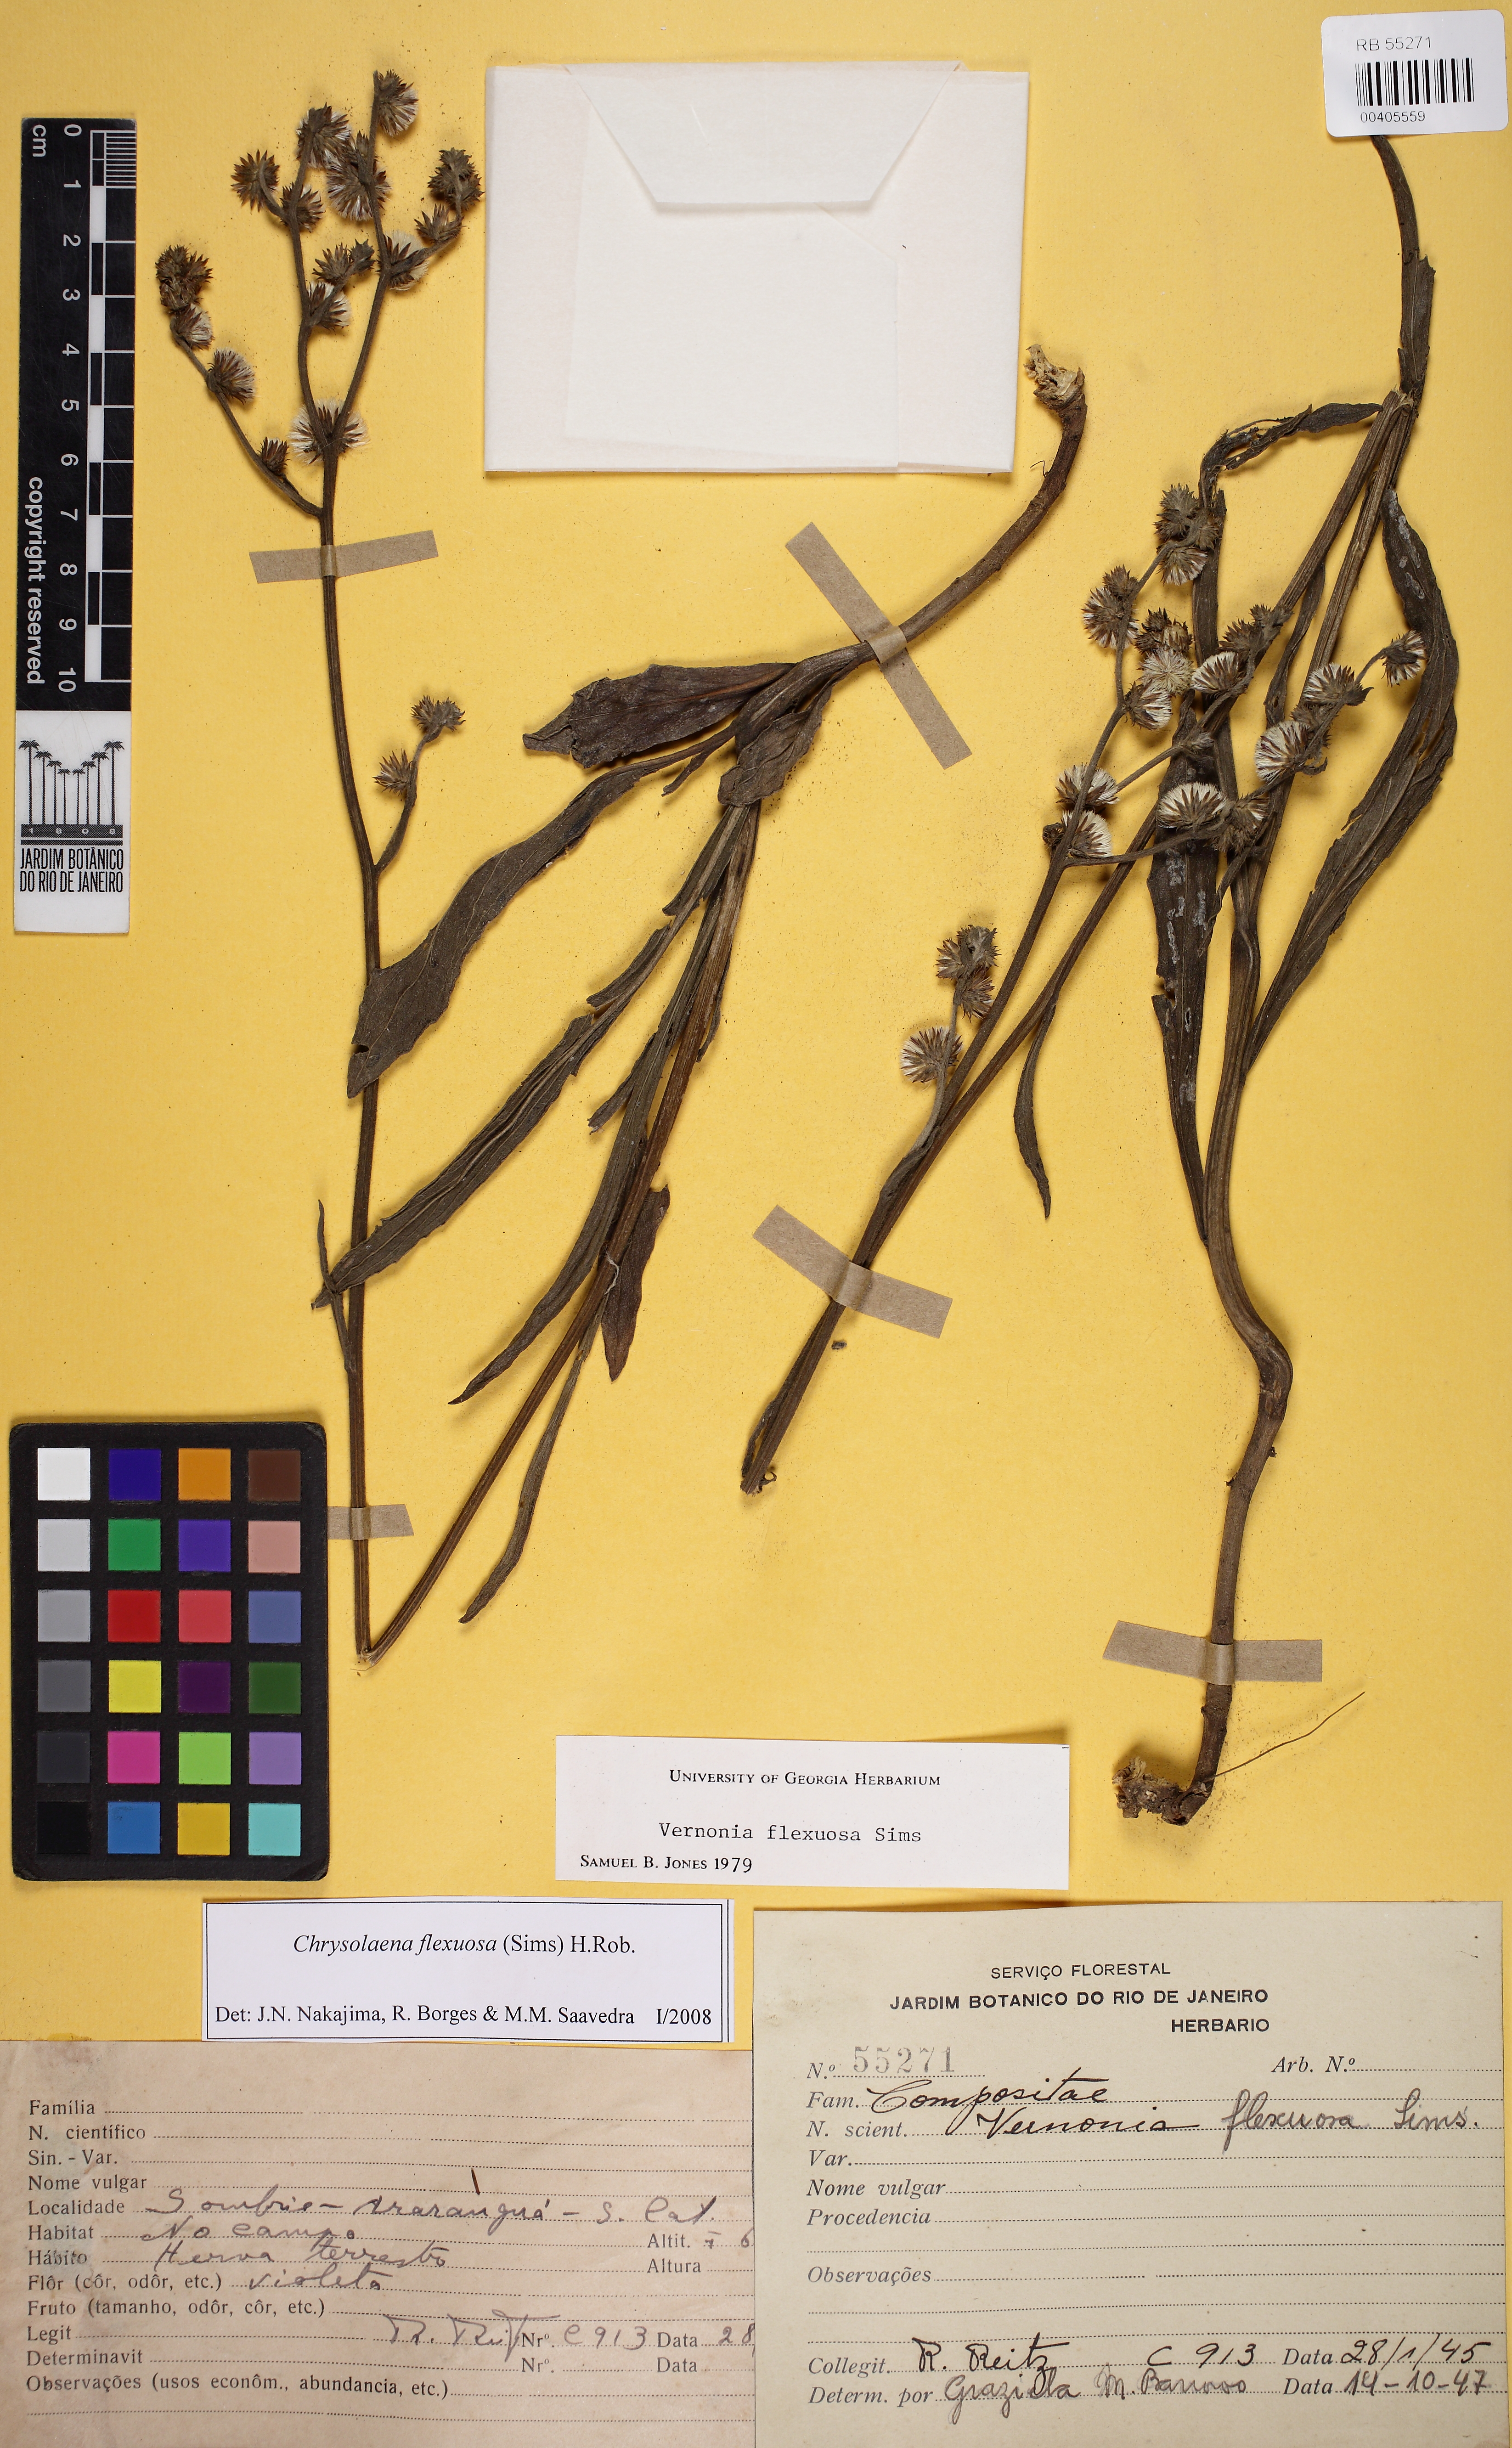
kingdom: Plantae
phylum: Tracheophyta
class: Magnoliopsida
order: Asterales
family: Asteraceae
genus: Chrysolaena
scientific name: Chrysolaena flexuosa
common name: Zig-zag vernonia
